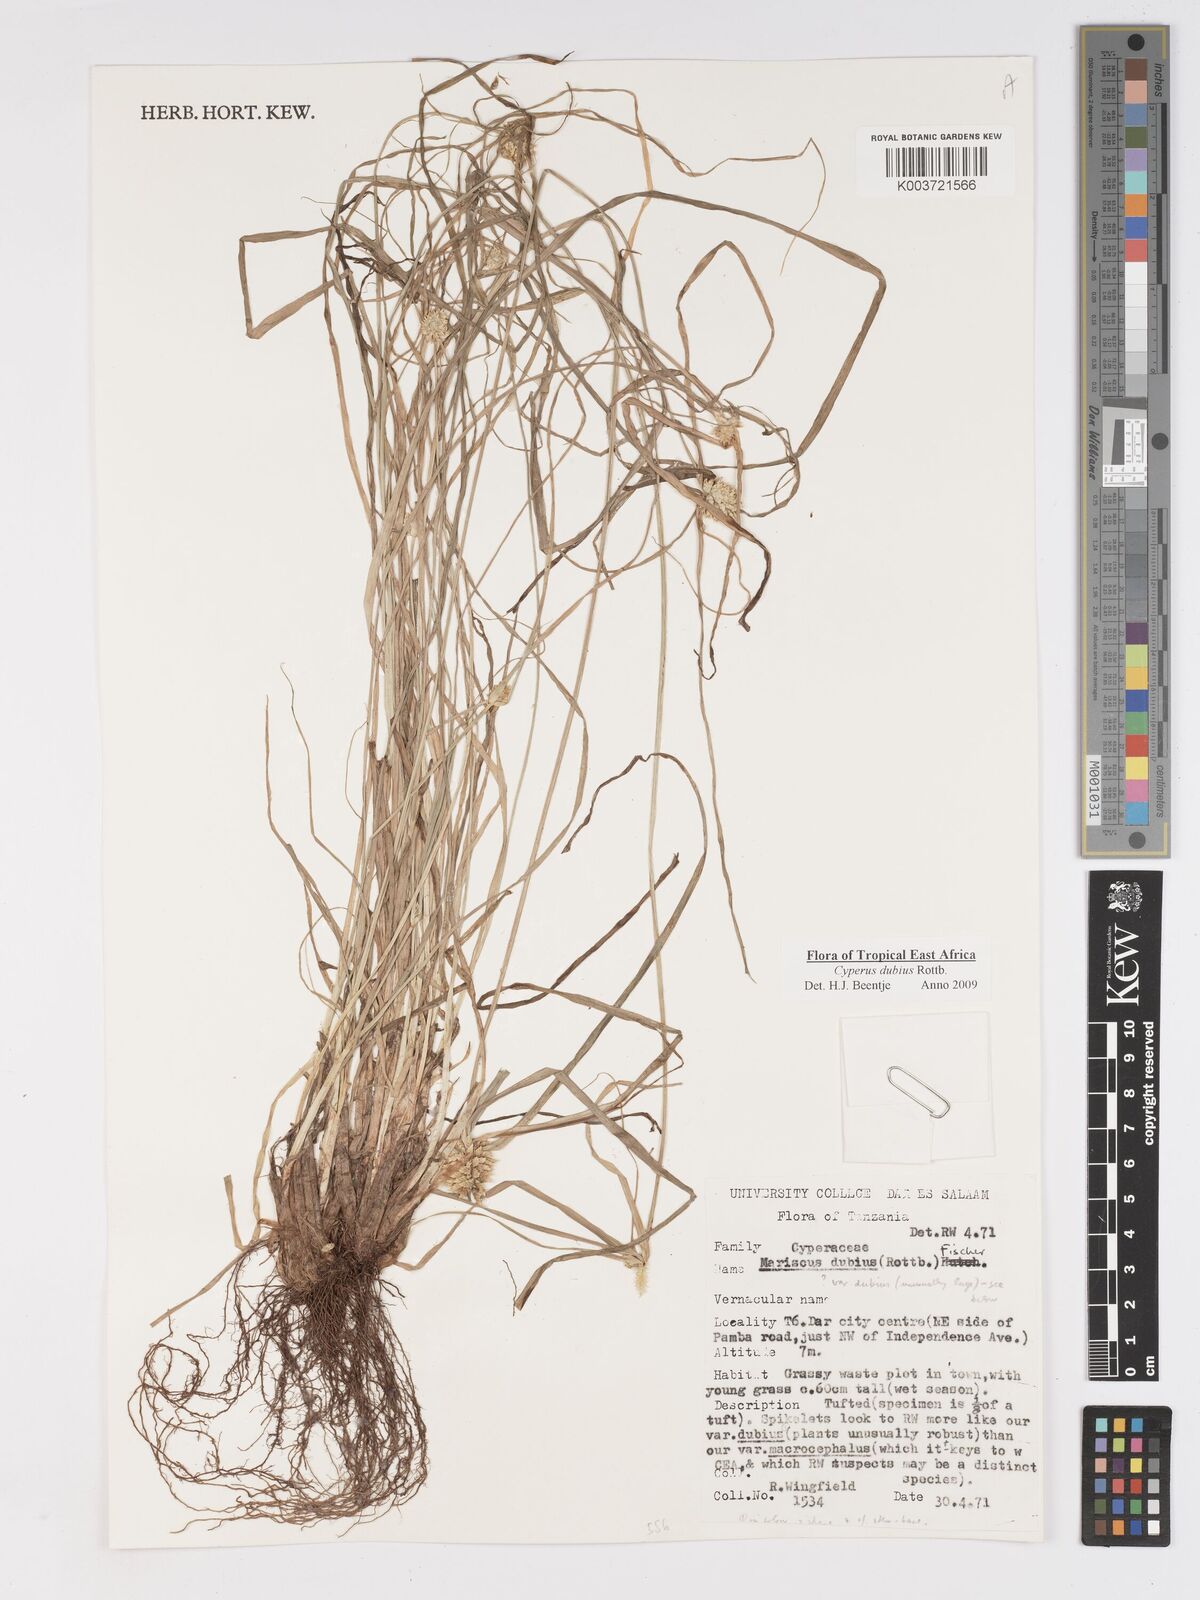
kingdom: Plantae
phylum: Tracheophyta
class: Liliopsida
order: Poales
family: Cyperaceae
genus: Cyperus
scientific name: Cyperus dubius
